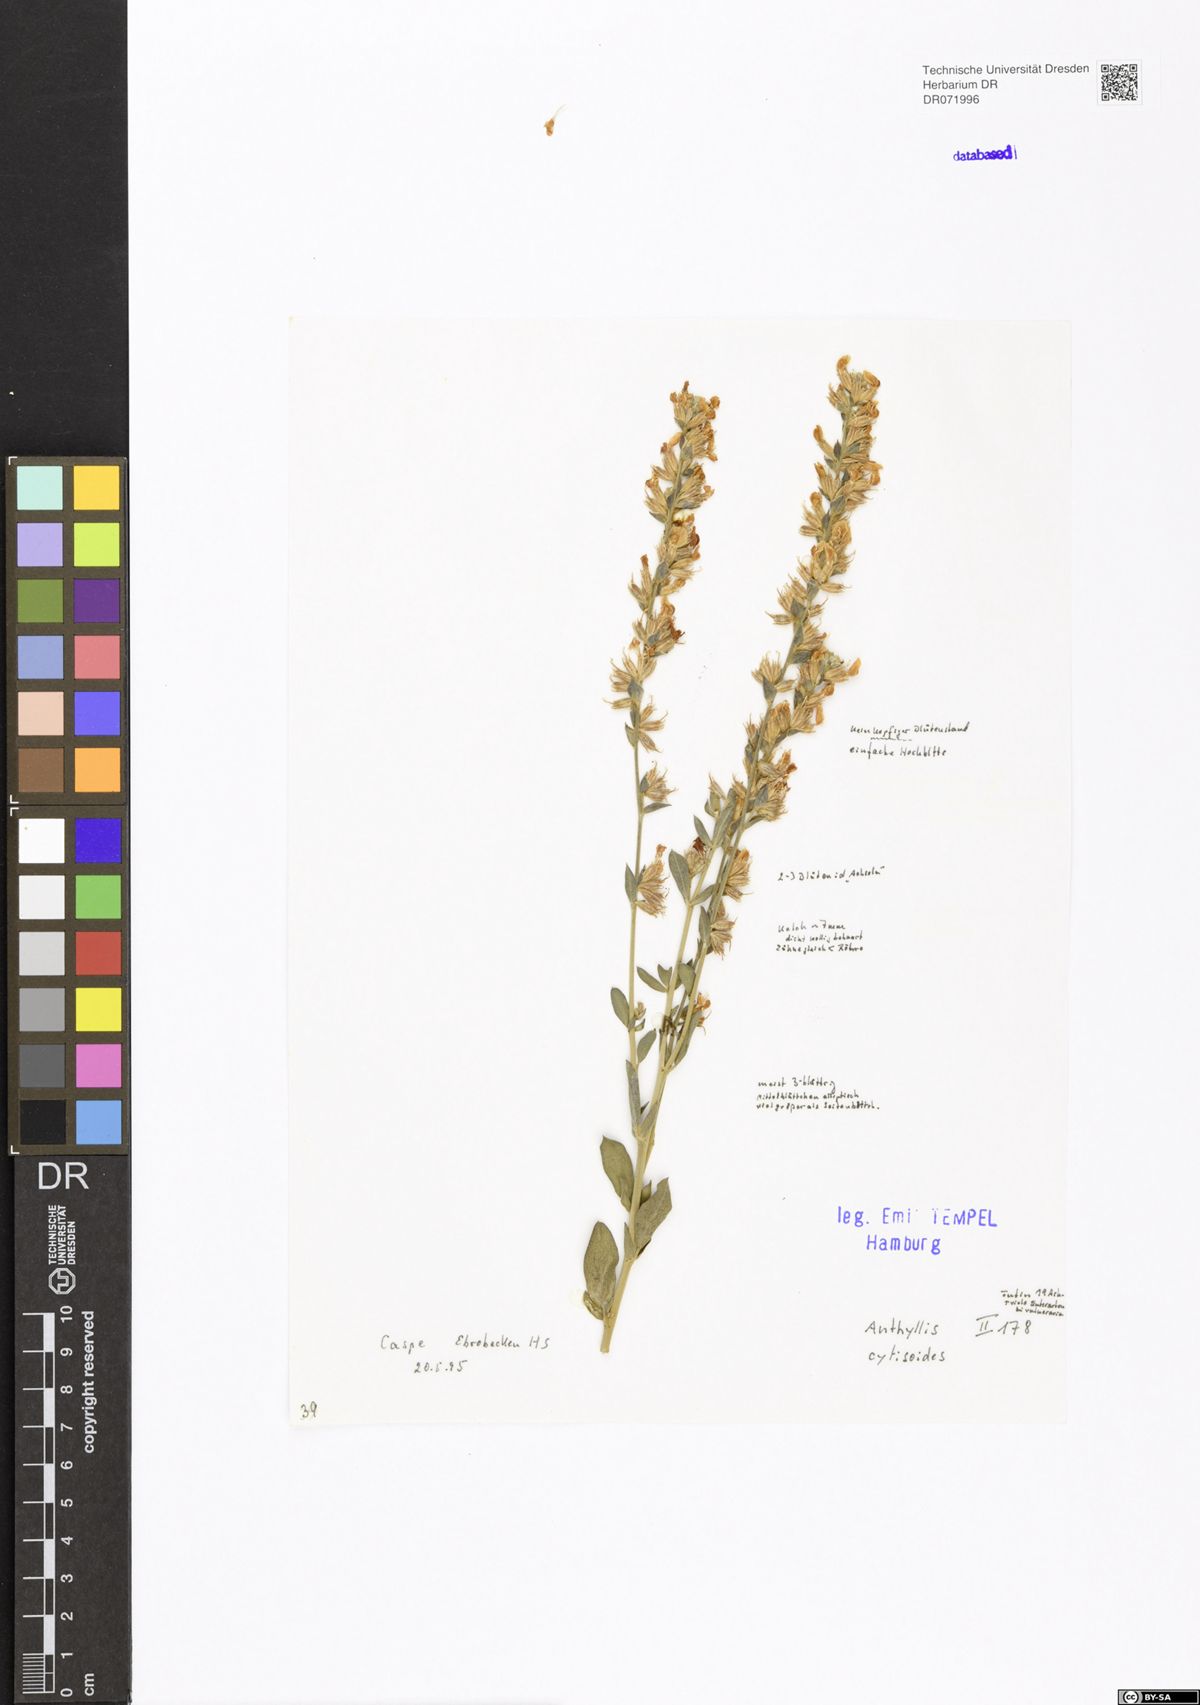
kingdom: Plantae
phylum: Tracheophyta
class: Magnoliopsida
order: Fabales
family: Fabaceae
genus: Anthyllis
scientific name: Anthyllis cytisoides
